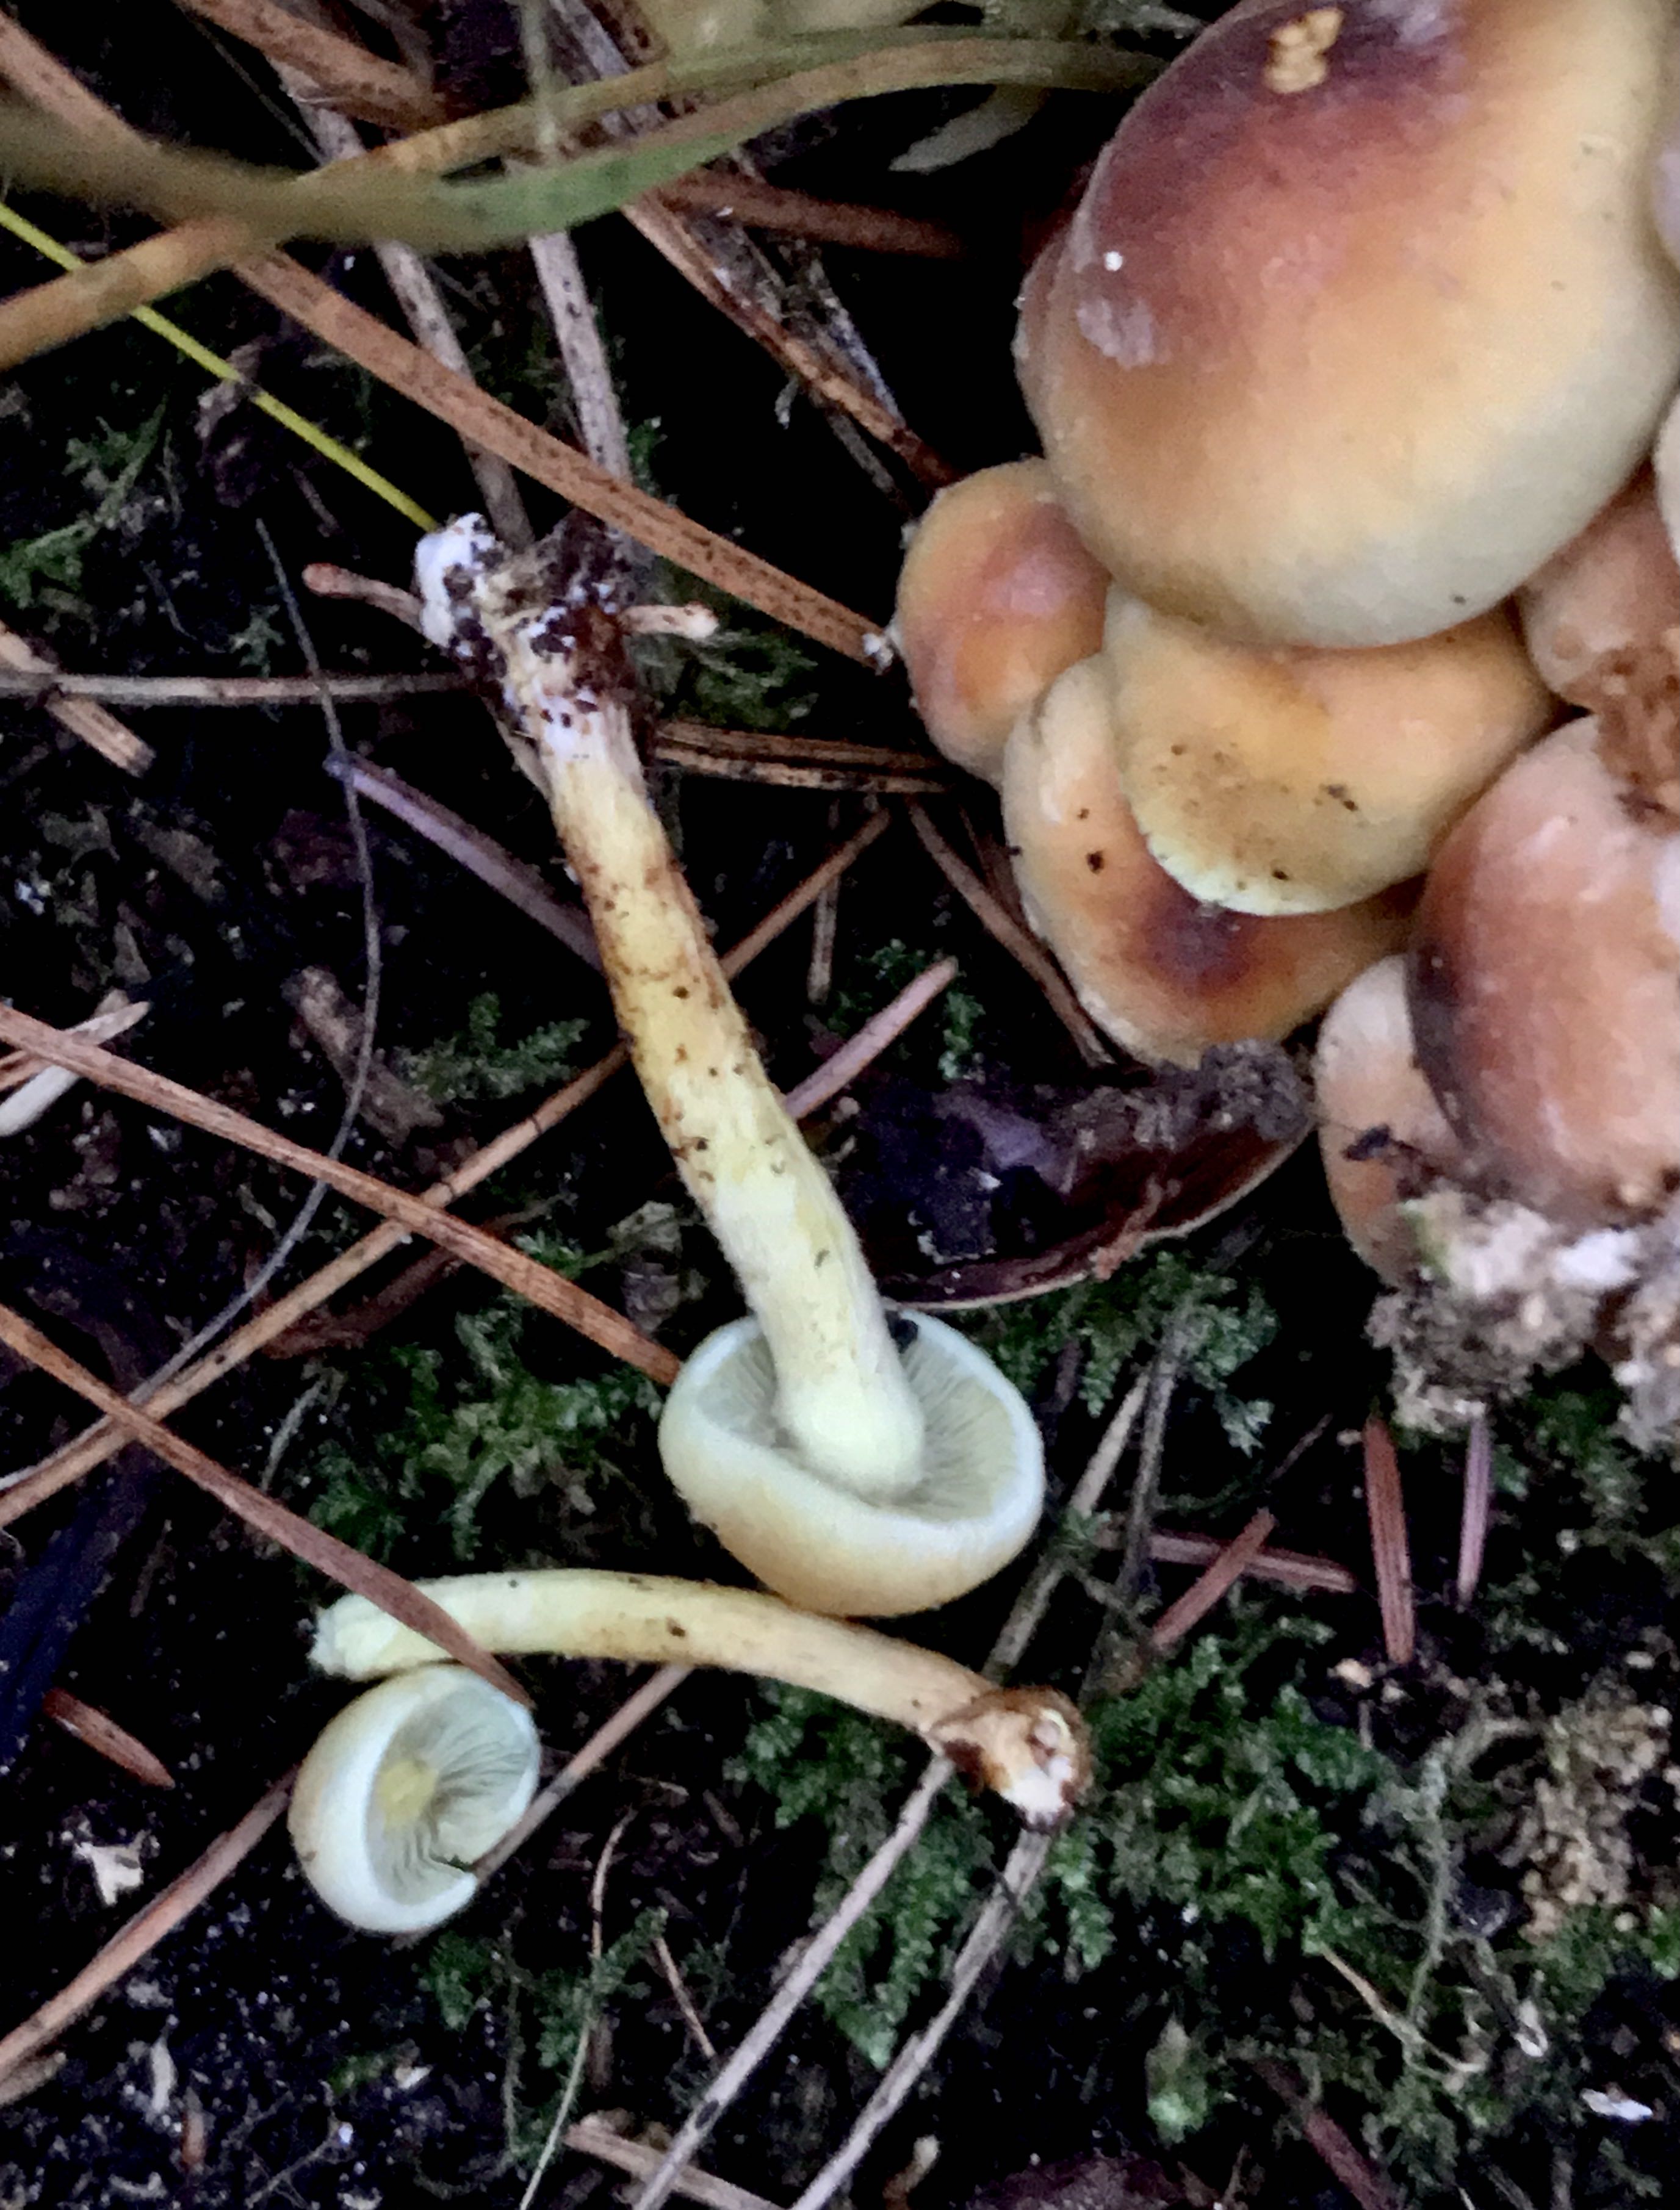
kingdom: Fungi
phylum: Basidiomycota
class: Agaricomycetes
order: Agaricales
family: Strophariaceae
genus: Hypholoma
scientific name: Hypholoma fasciculare
